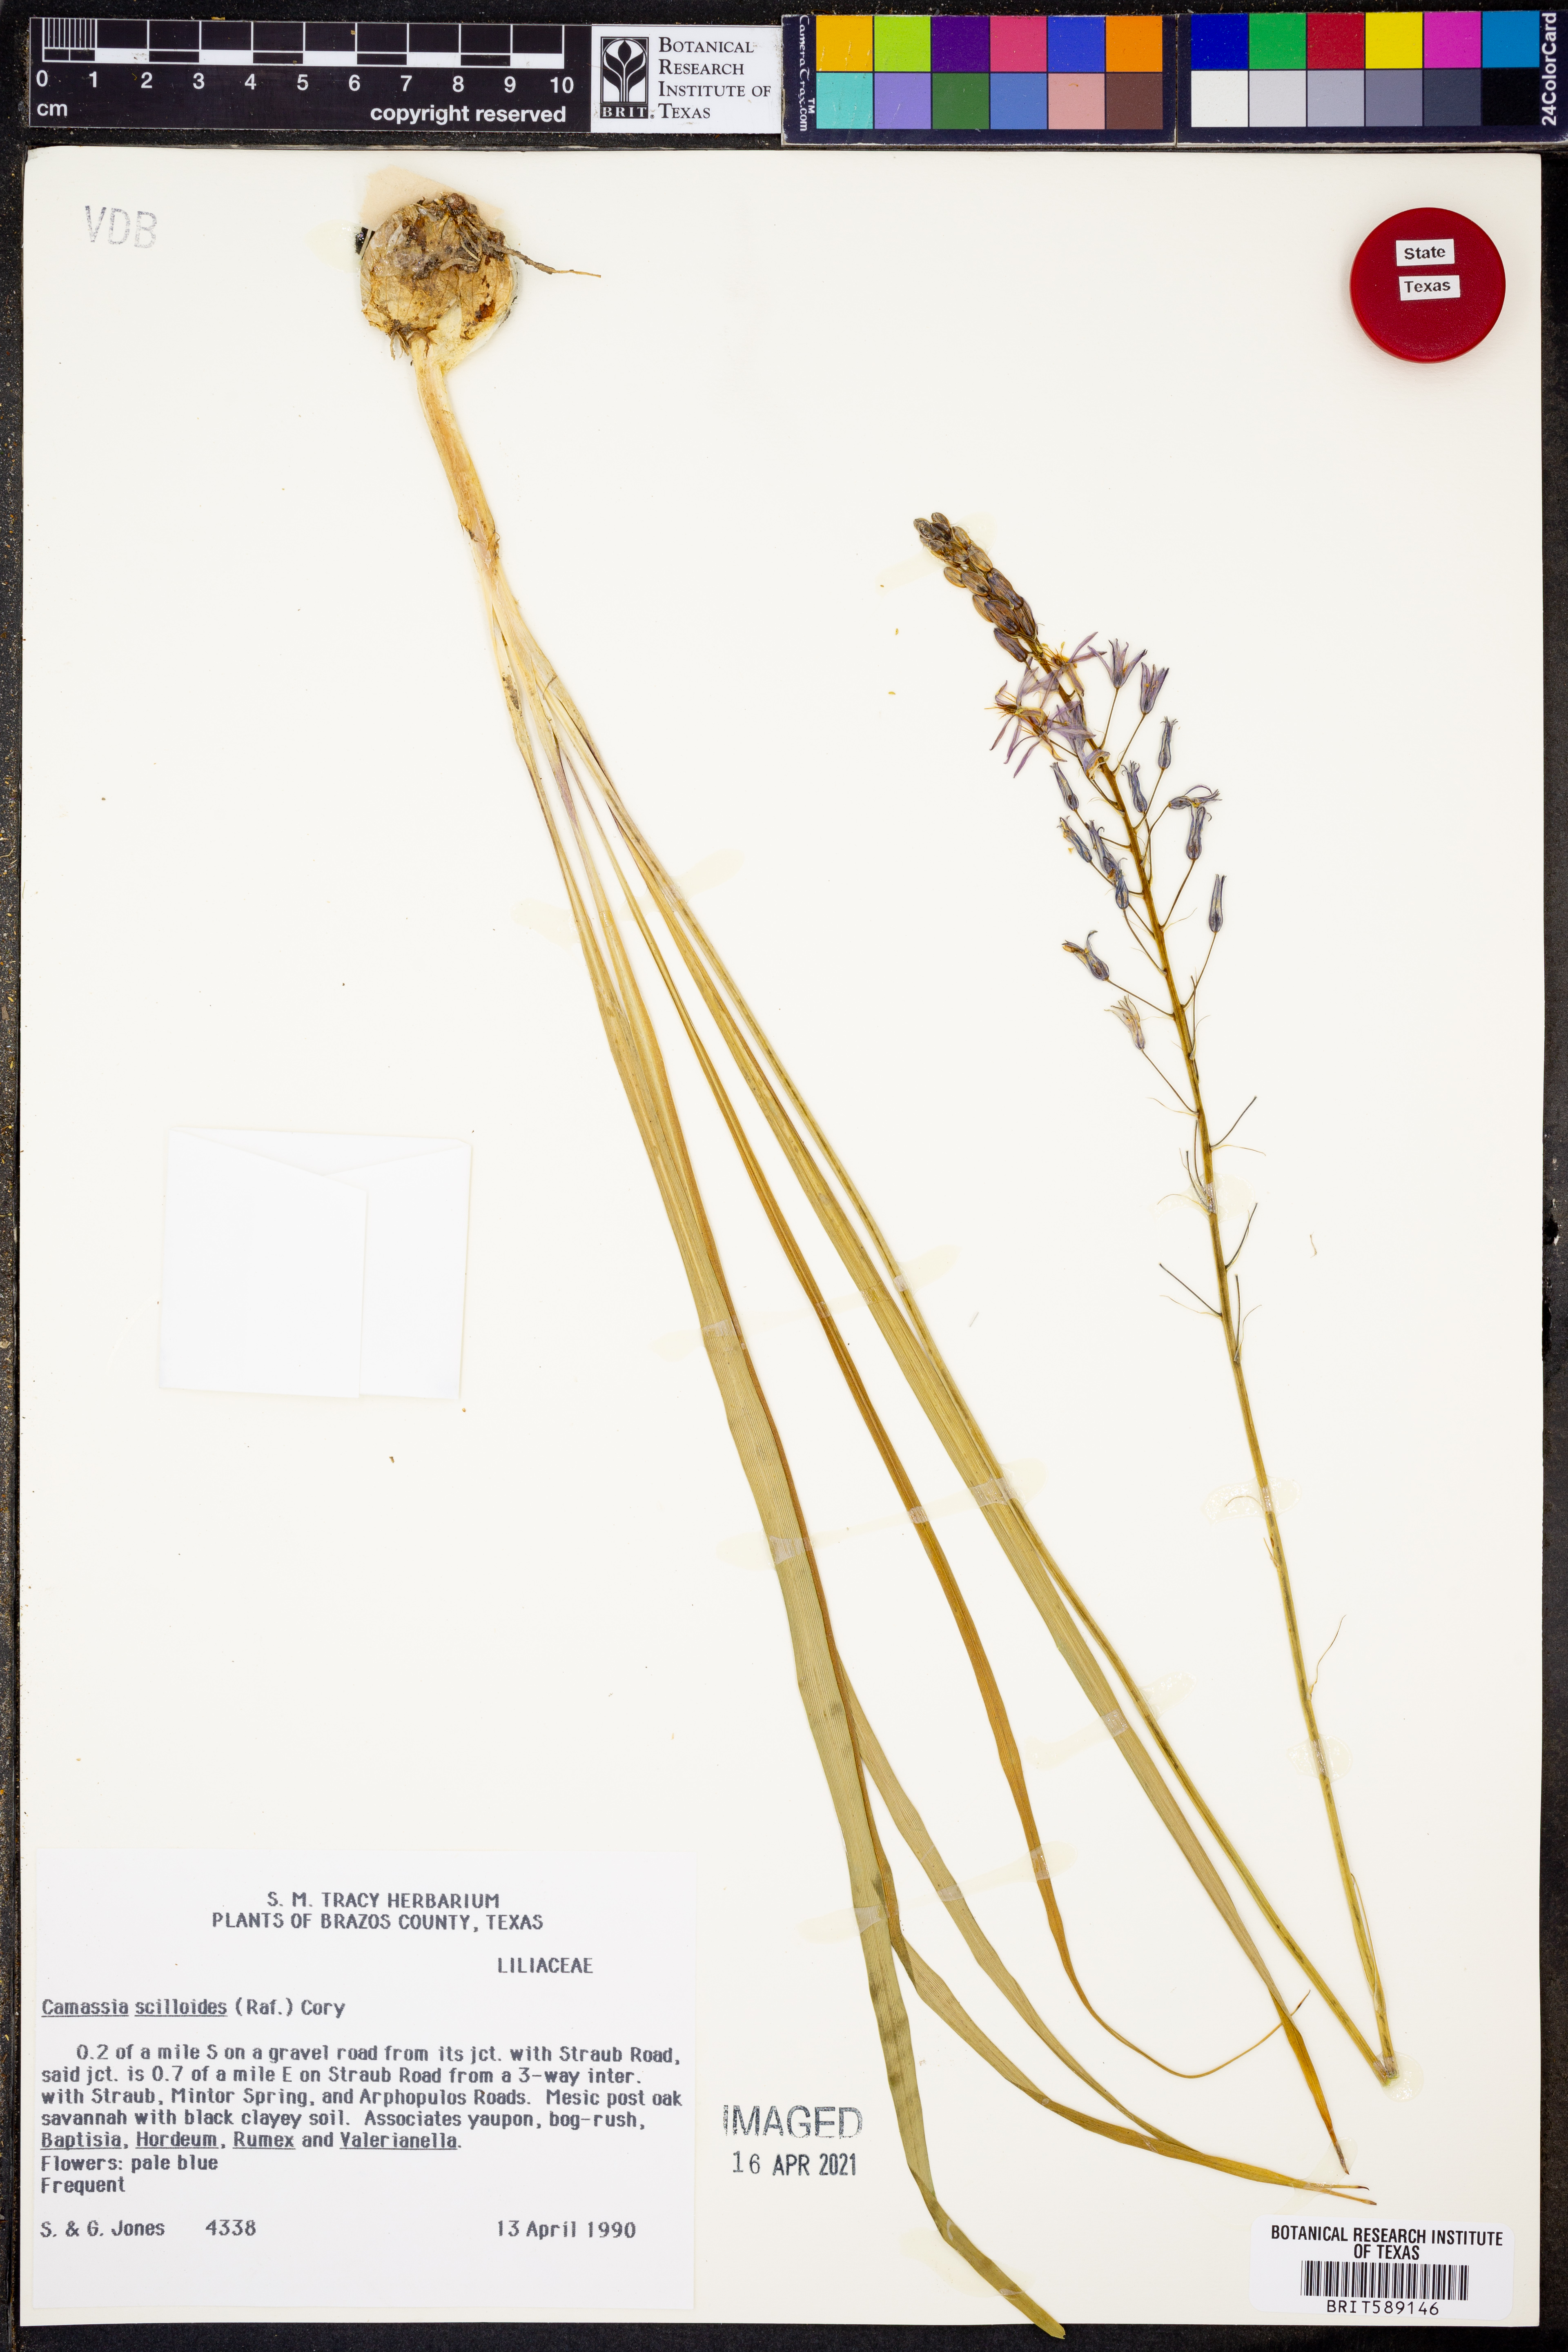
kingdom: Plantae
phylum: Tracheophyta
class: Liliopsida
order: Asparagales
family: Asparagaceae
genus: Camassia
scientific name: Camassia scilloides
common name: Wild hyacinth
